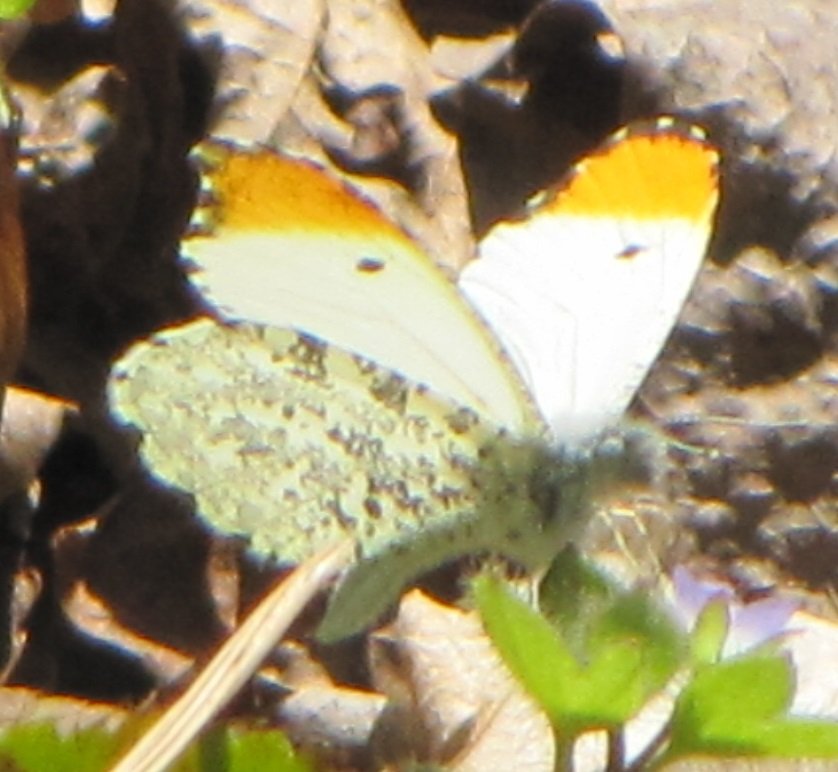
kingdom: Animalia
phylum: Arthropoda
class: Insecta
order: Lepidoptera
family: Pieridae
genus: Anthocharis
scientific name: Anthocharis midea
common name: Falcate Orangetip
